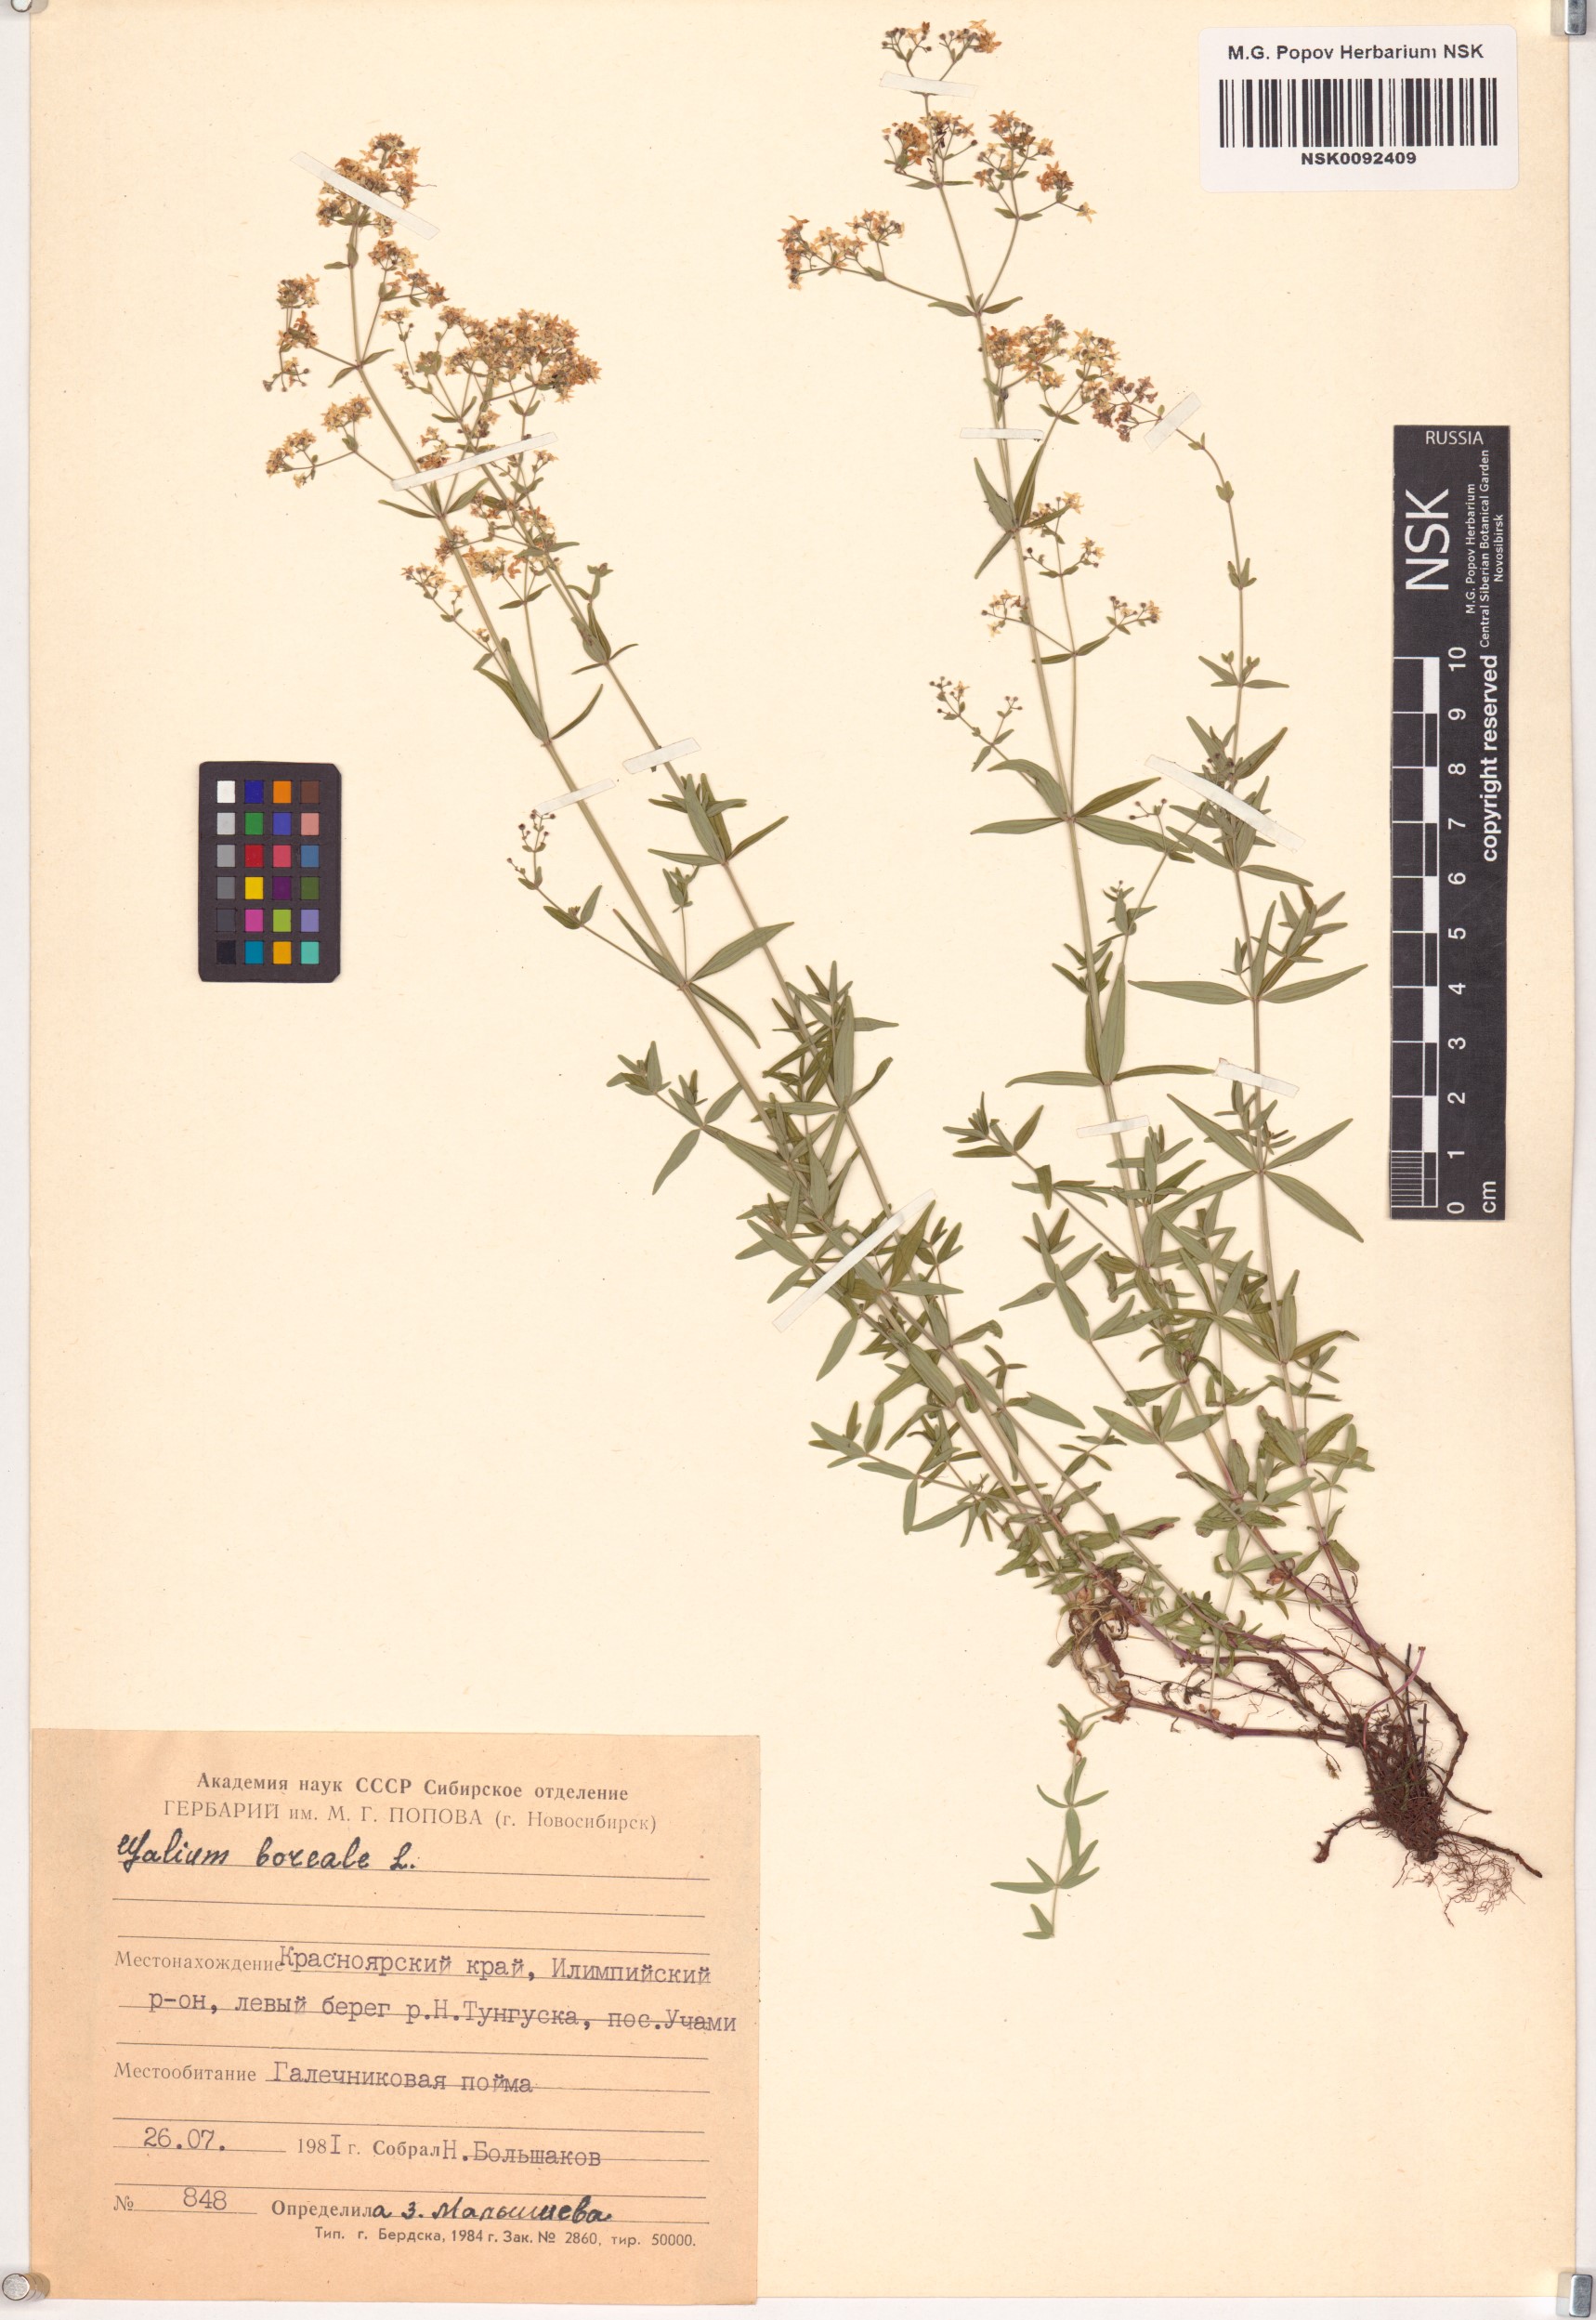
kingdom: Plantae
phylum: Tracheophyta
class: Magnoliopsida
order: Gentianales
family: Rubiaceae
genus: Galium
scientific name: Galium boreale
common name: Northern bedstraw
